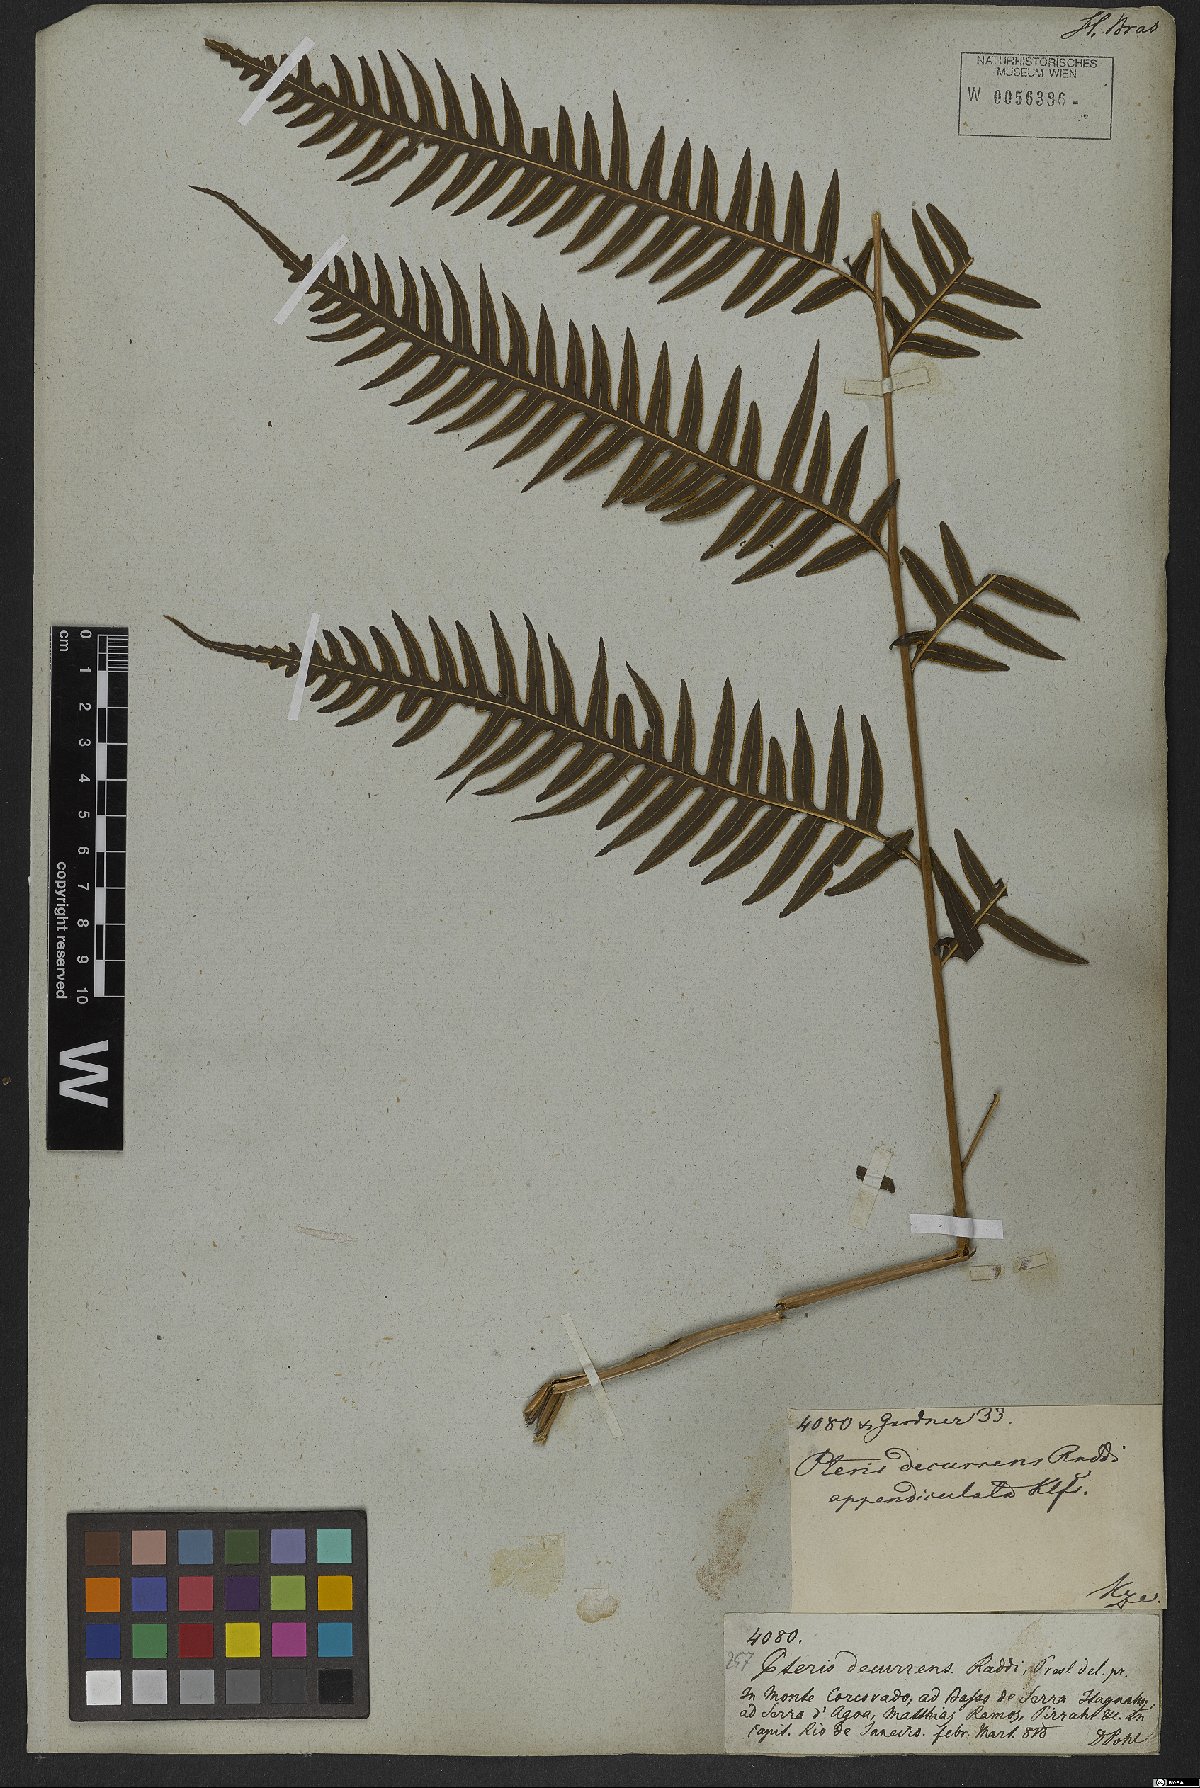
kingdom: Plantae
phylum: Tracheophyta
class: Polypodiopsida
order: Polypodiales
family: Pteridaceae
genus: Pteris
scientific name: Pteris decurrens
